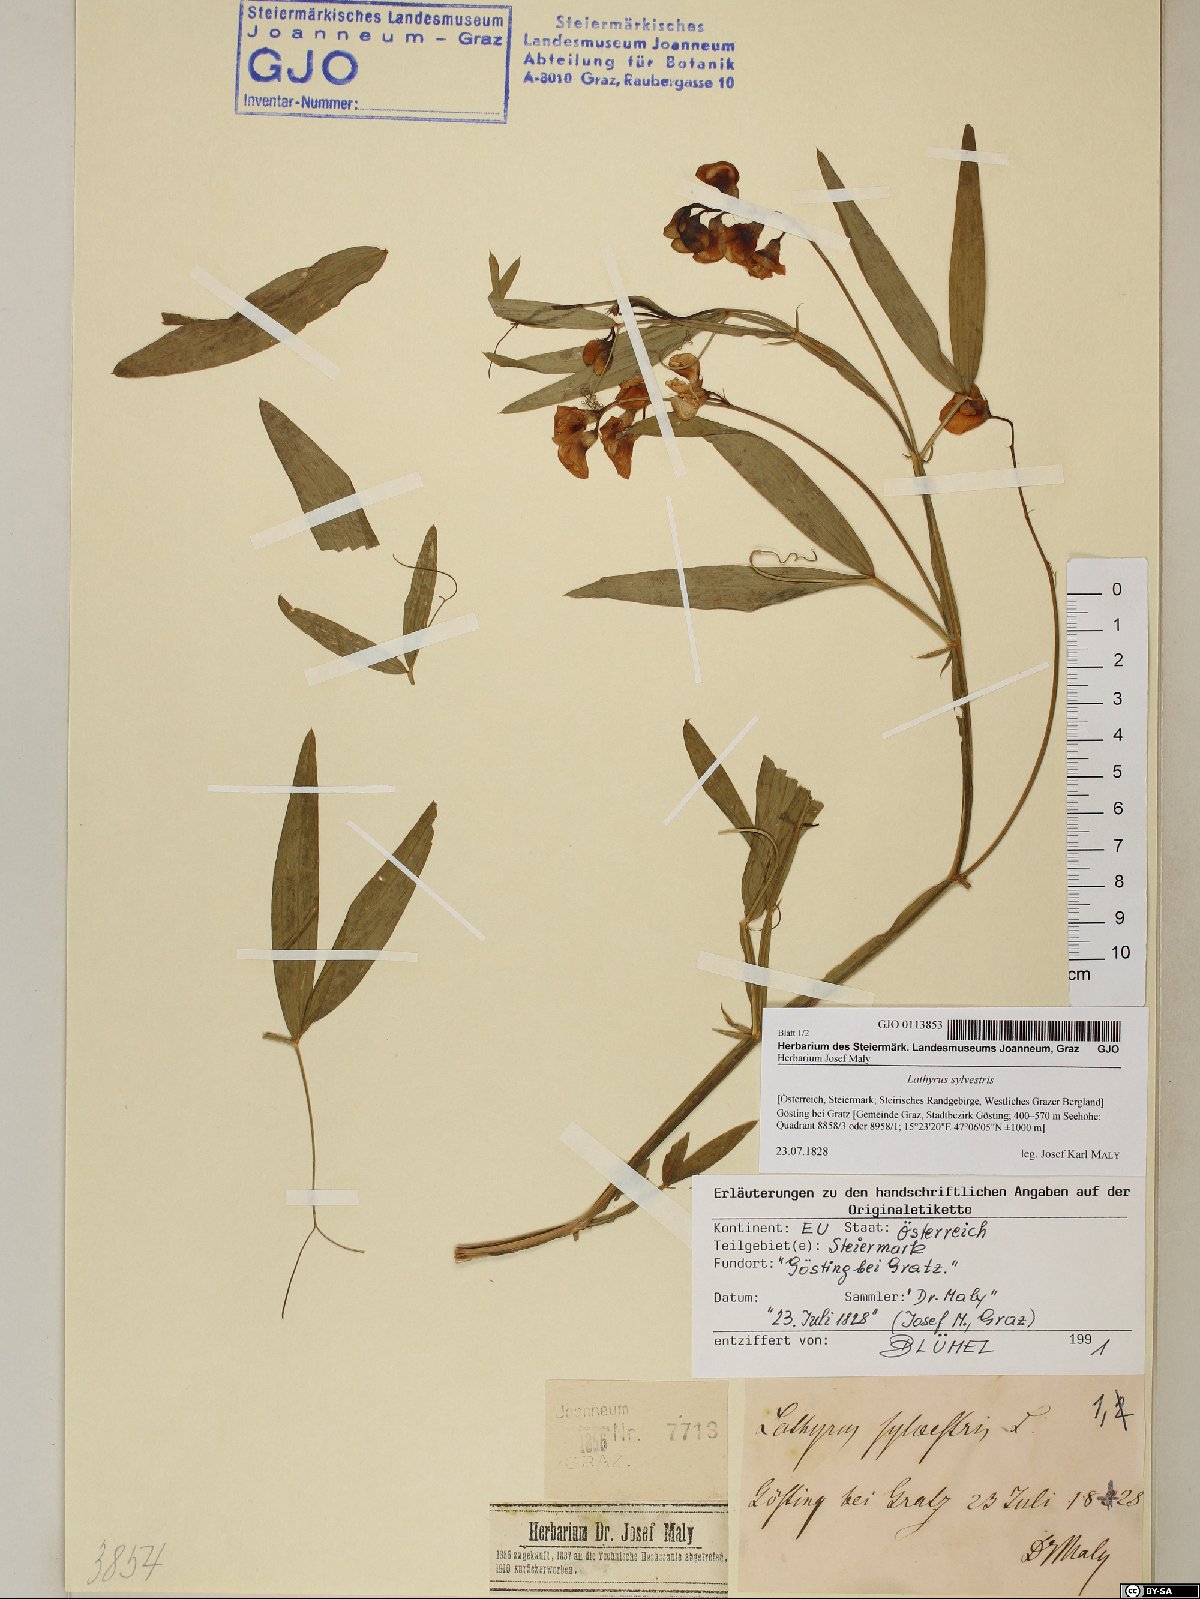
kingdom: Plantae
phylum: Tracheophyta
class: Magnoliopsida
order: Fabales
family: Fabaceae
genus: Lathyrus
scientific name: Lathyrus sylvestris
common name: Flat pea
